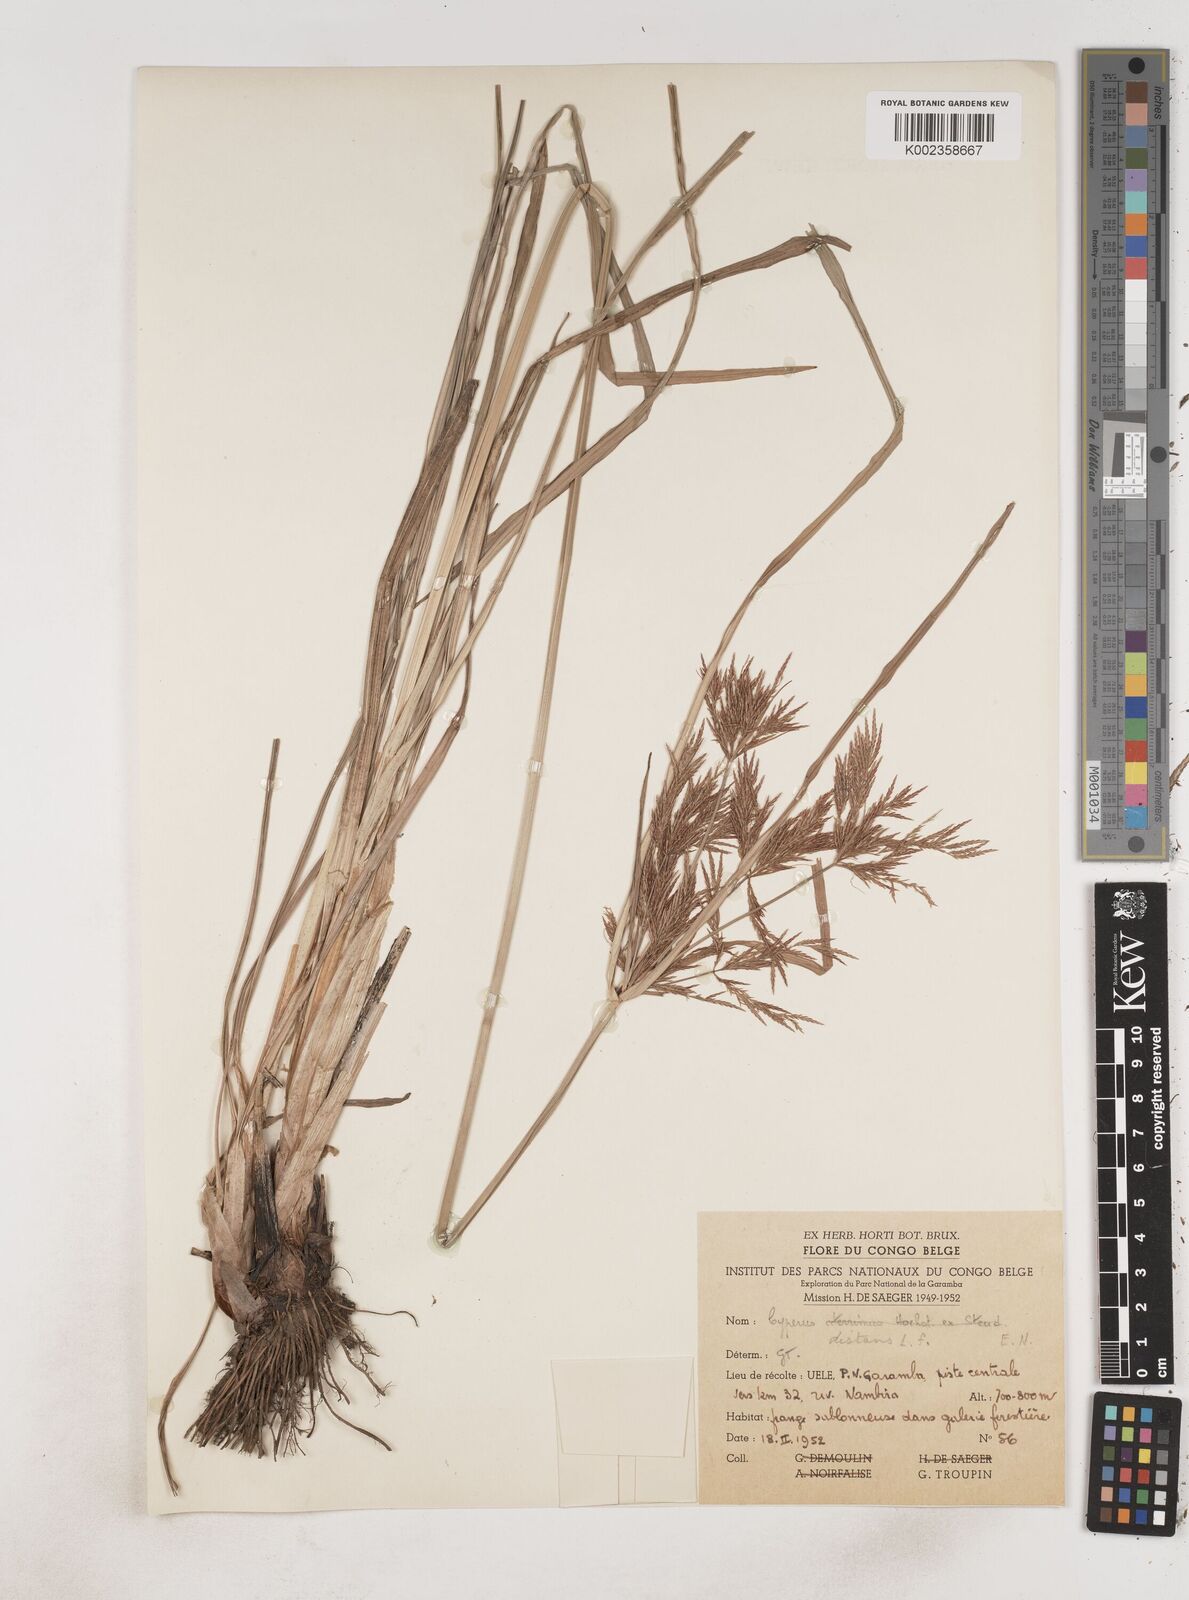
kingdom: Plantae
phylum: Tracheophyta
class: Liliopsida
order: Poales
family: Cyperaceae
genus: Cyperus
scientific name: Cyperus distans
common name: Slender cyperus
